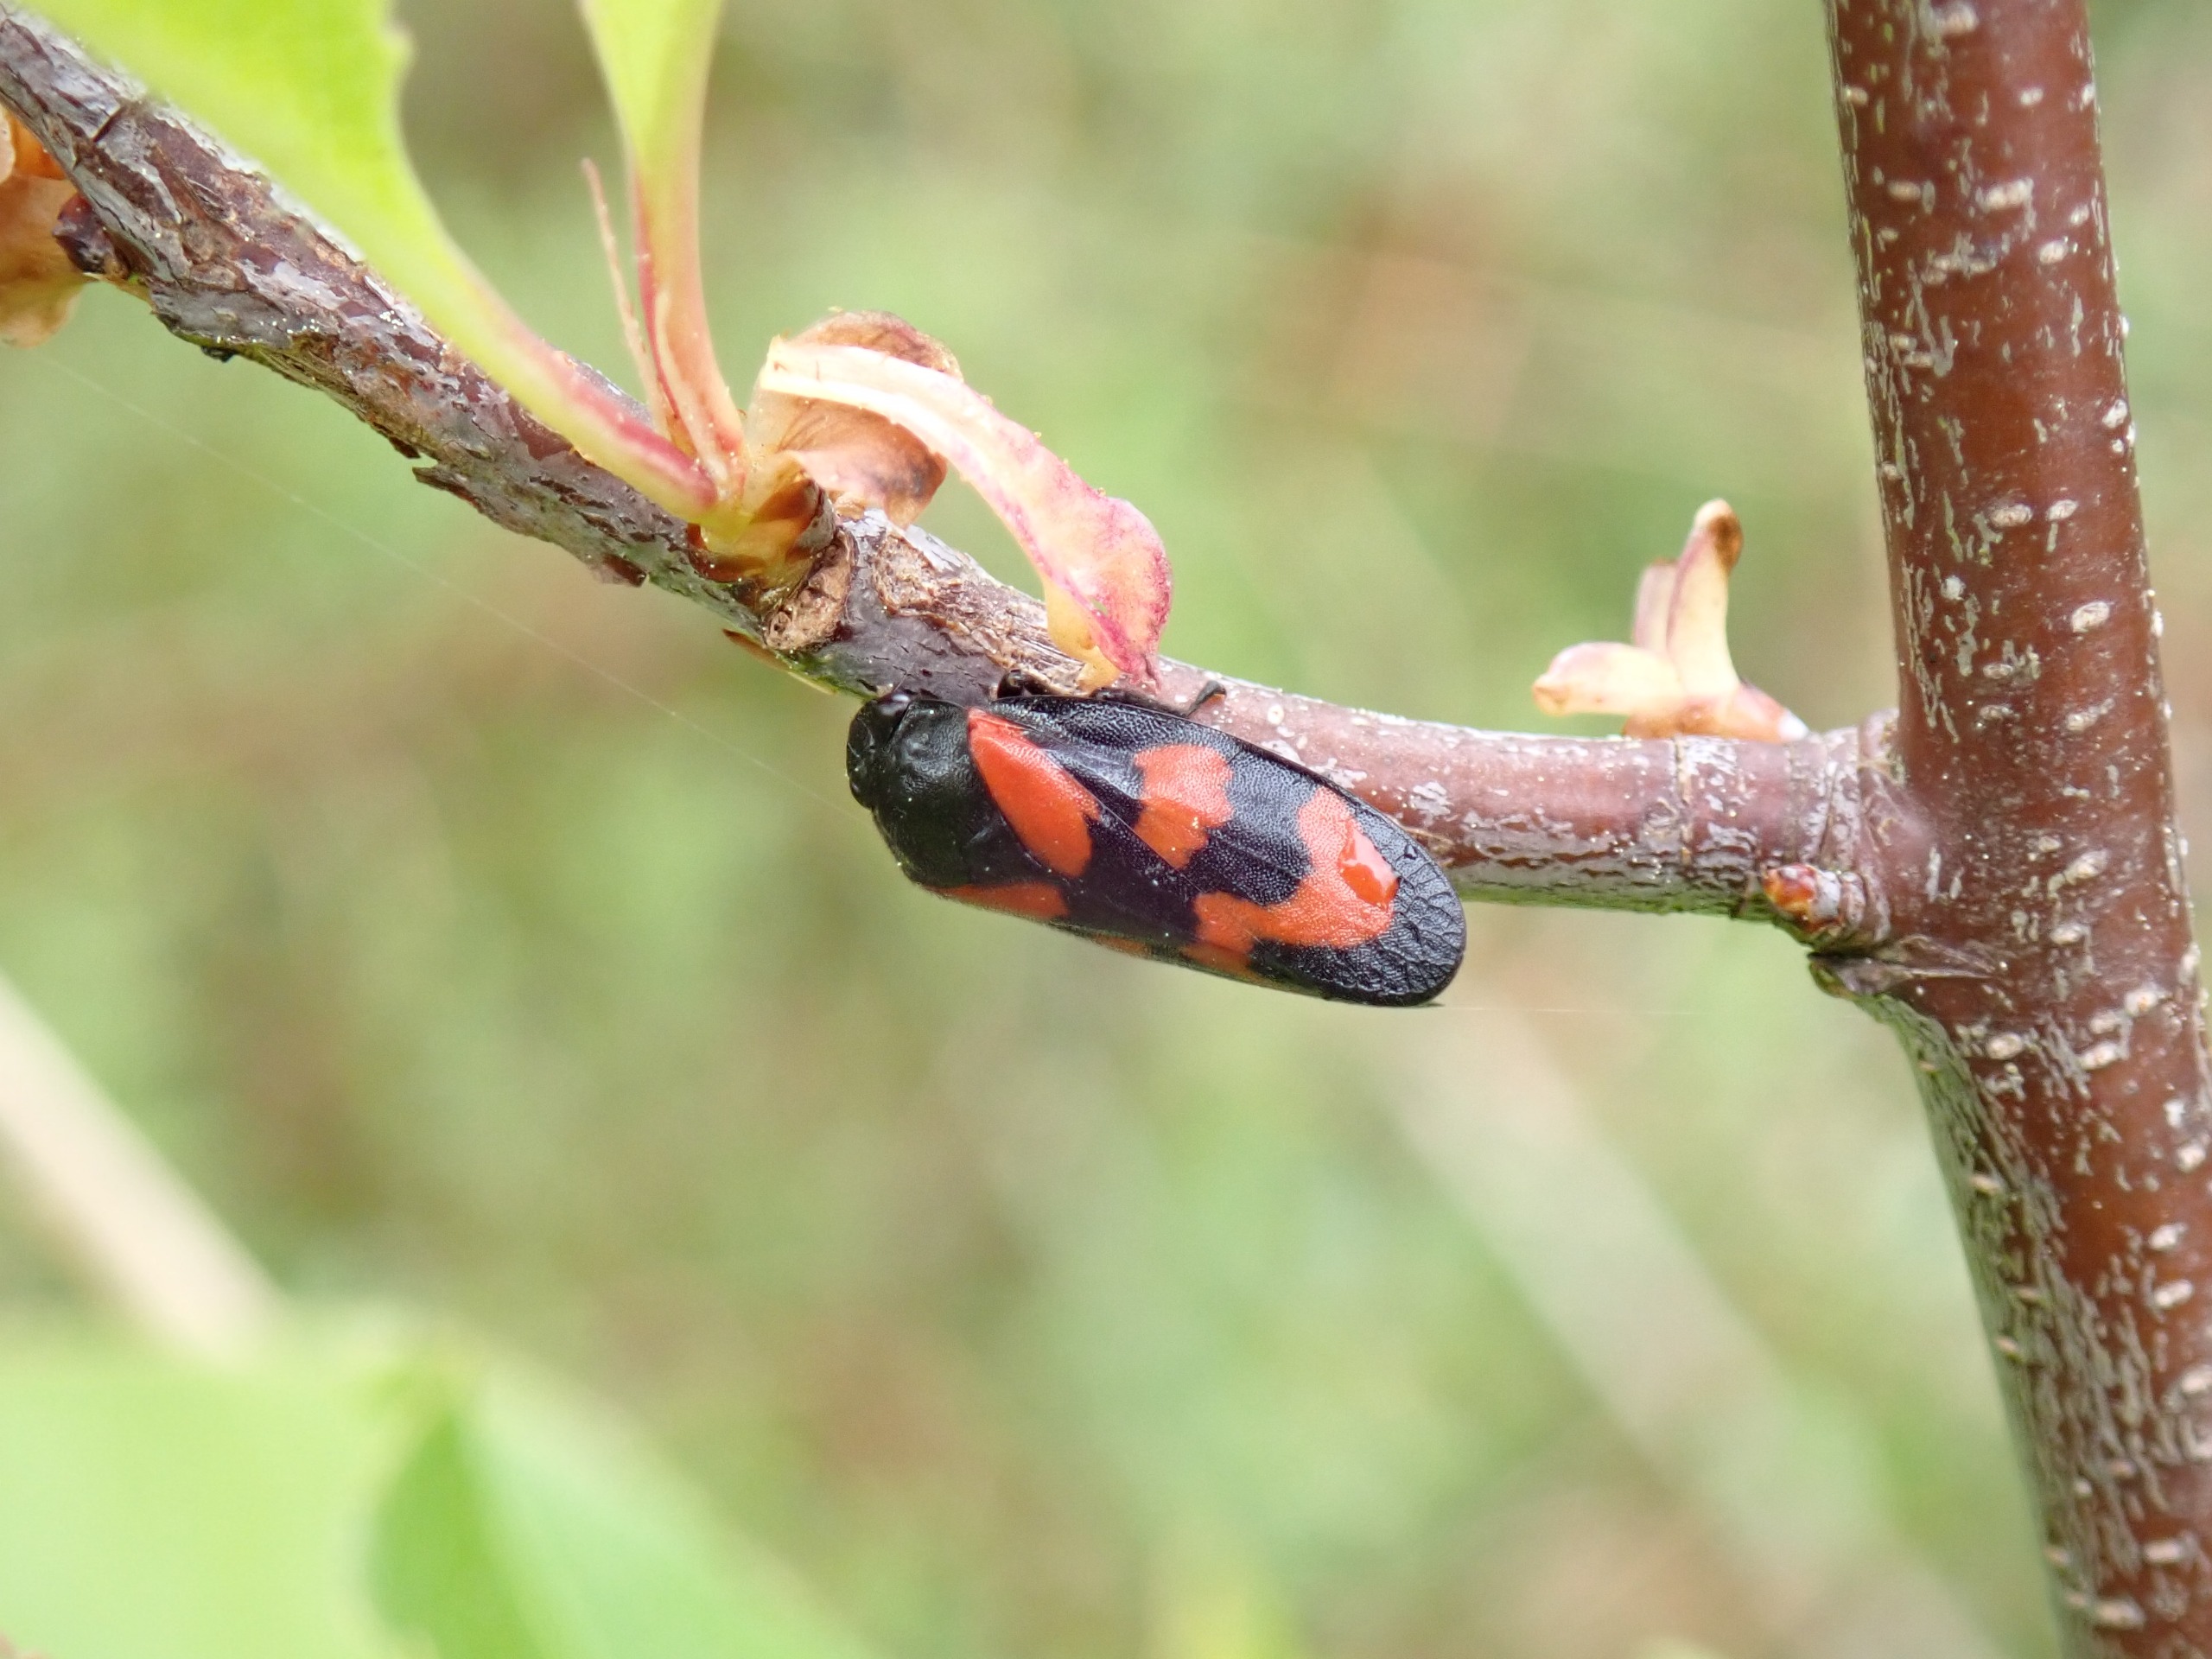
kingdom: Animalia
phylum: Arthropoda
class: Insecta
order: Hemiptera
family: Cercopidae
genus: Cercopis
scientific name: Cercopis vulnerata
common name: Blodcikade
